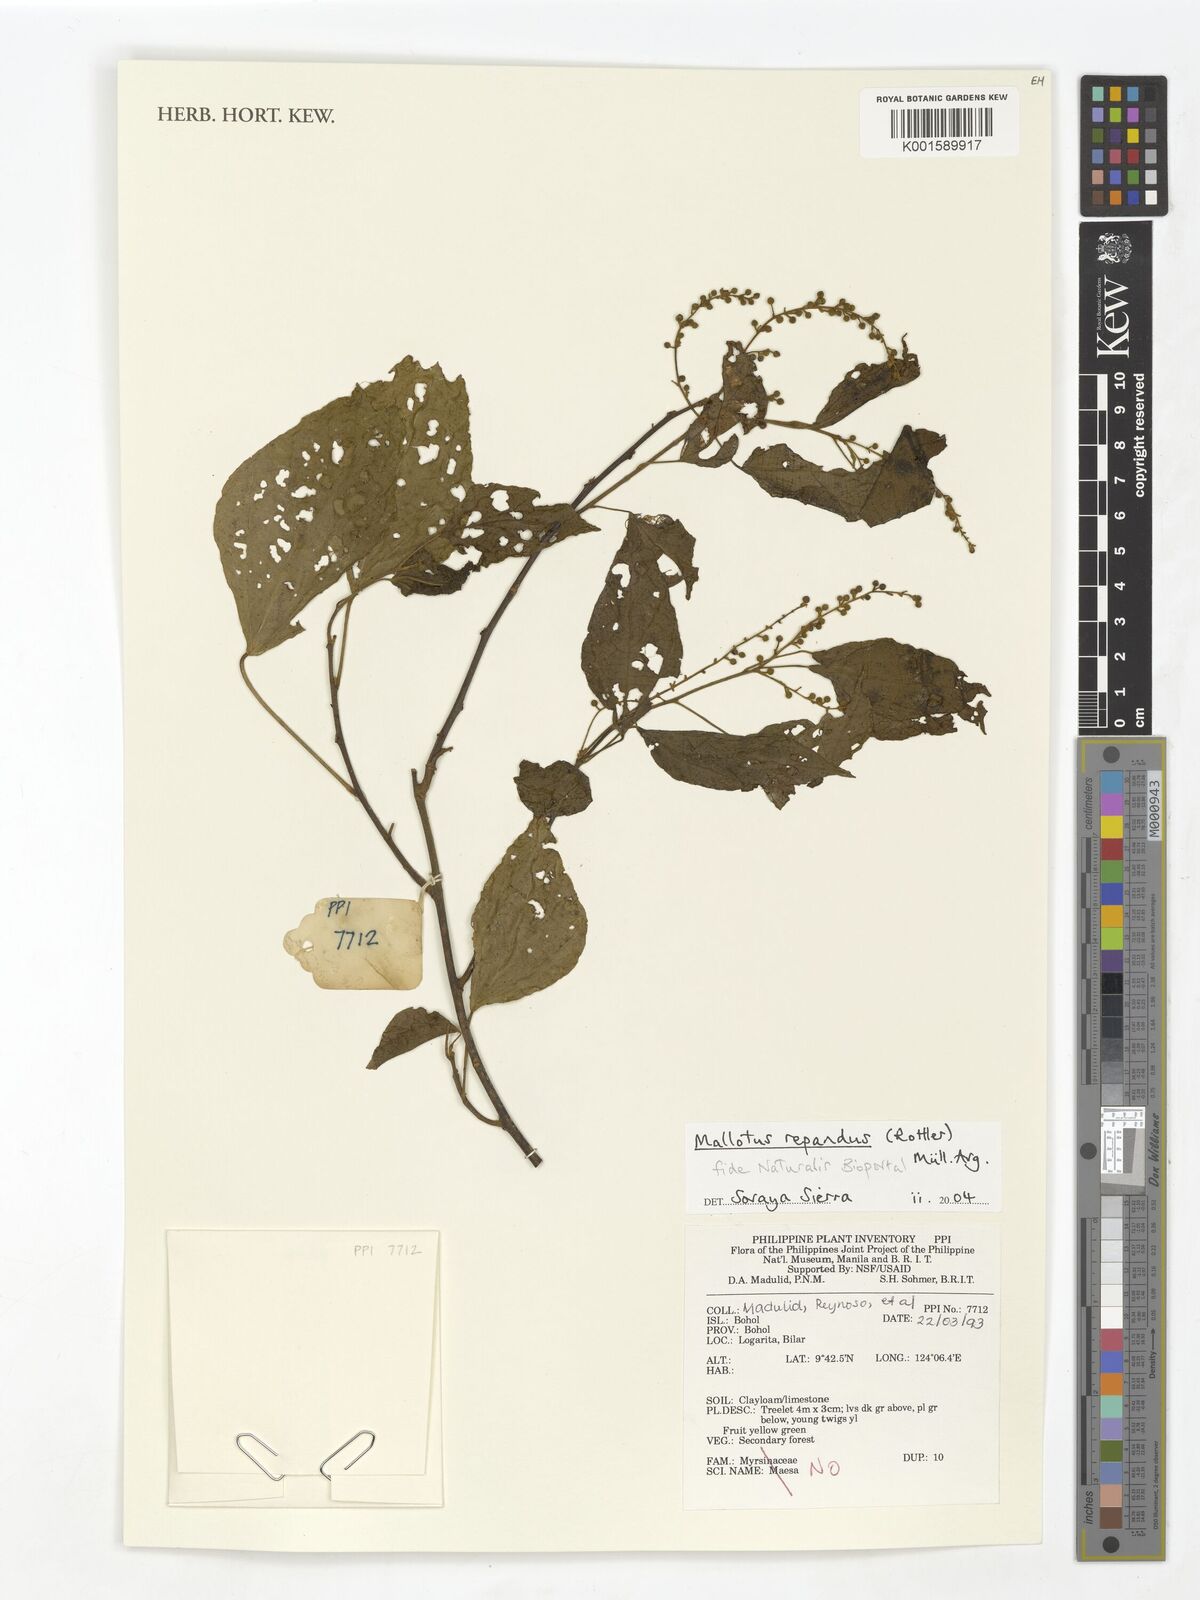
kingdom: Plantae
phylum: Tracheophyta
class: Magnoliopsida
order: Malpighiales
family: Euphorbiaceae
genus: Mallotus
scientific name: Mallotus repandus
